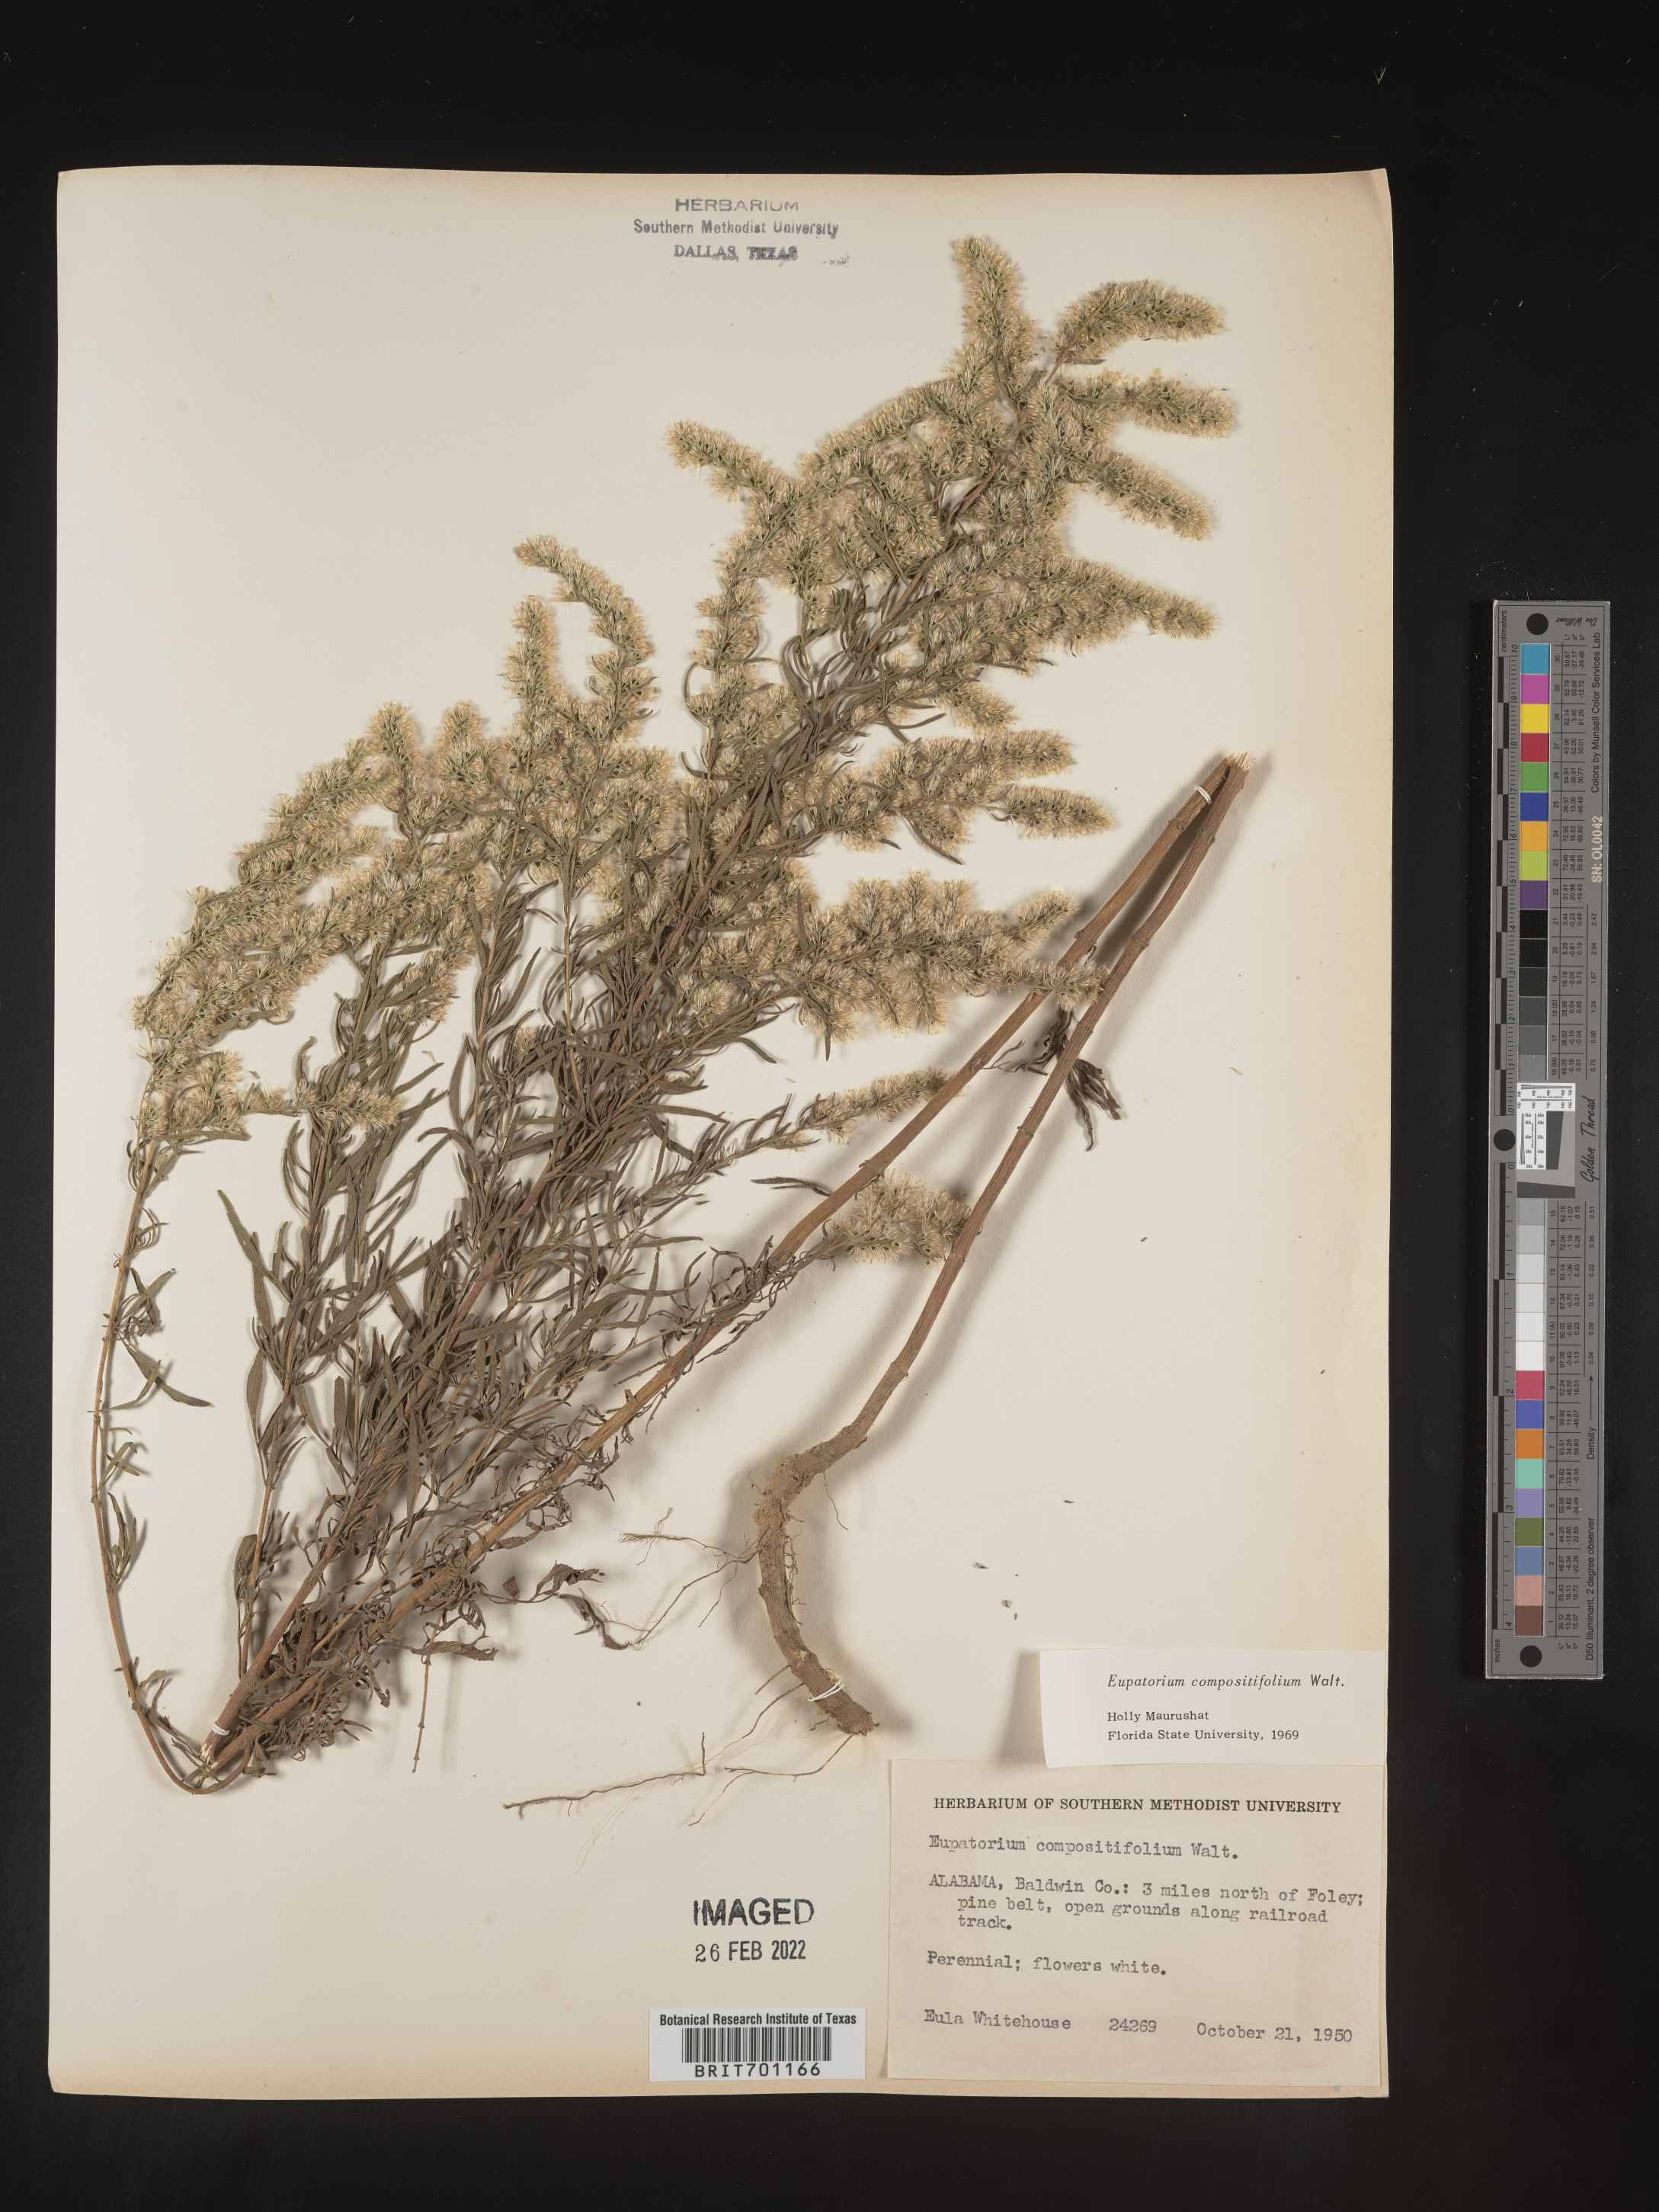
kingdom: Plantae
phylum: Tracheophyta
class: Magnoliopsida
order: Asterales
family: Asteraceae
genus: Eupatorium
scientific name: Eupatorium compositifolium
